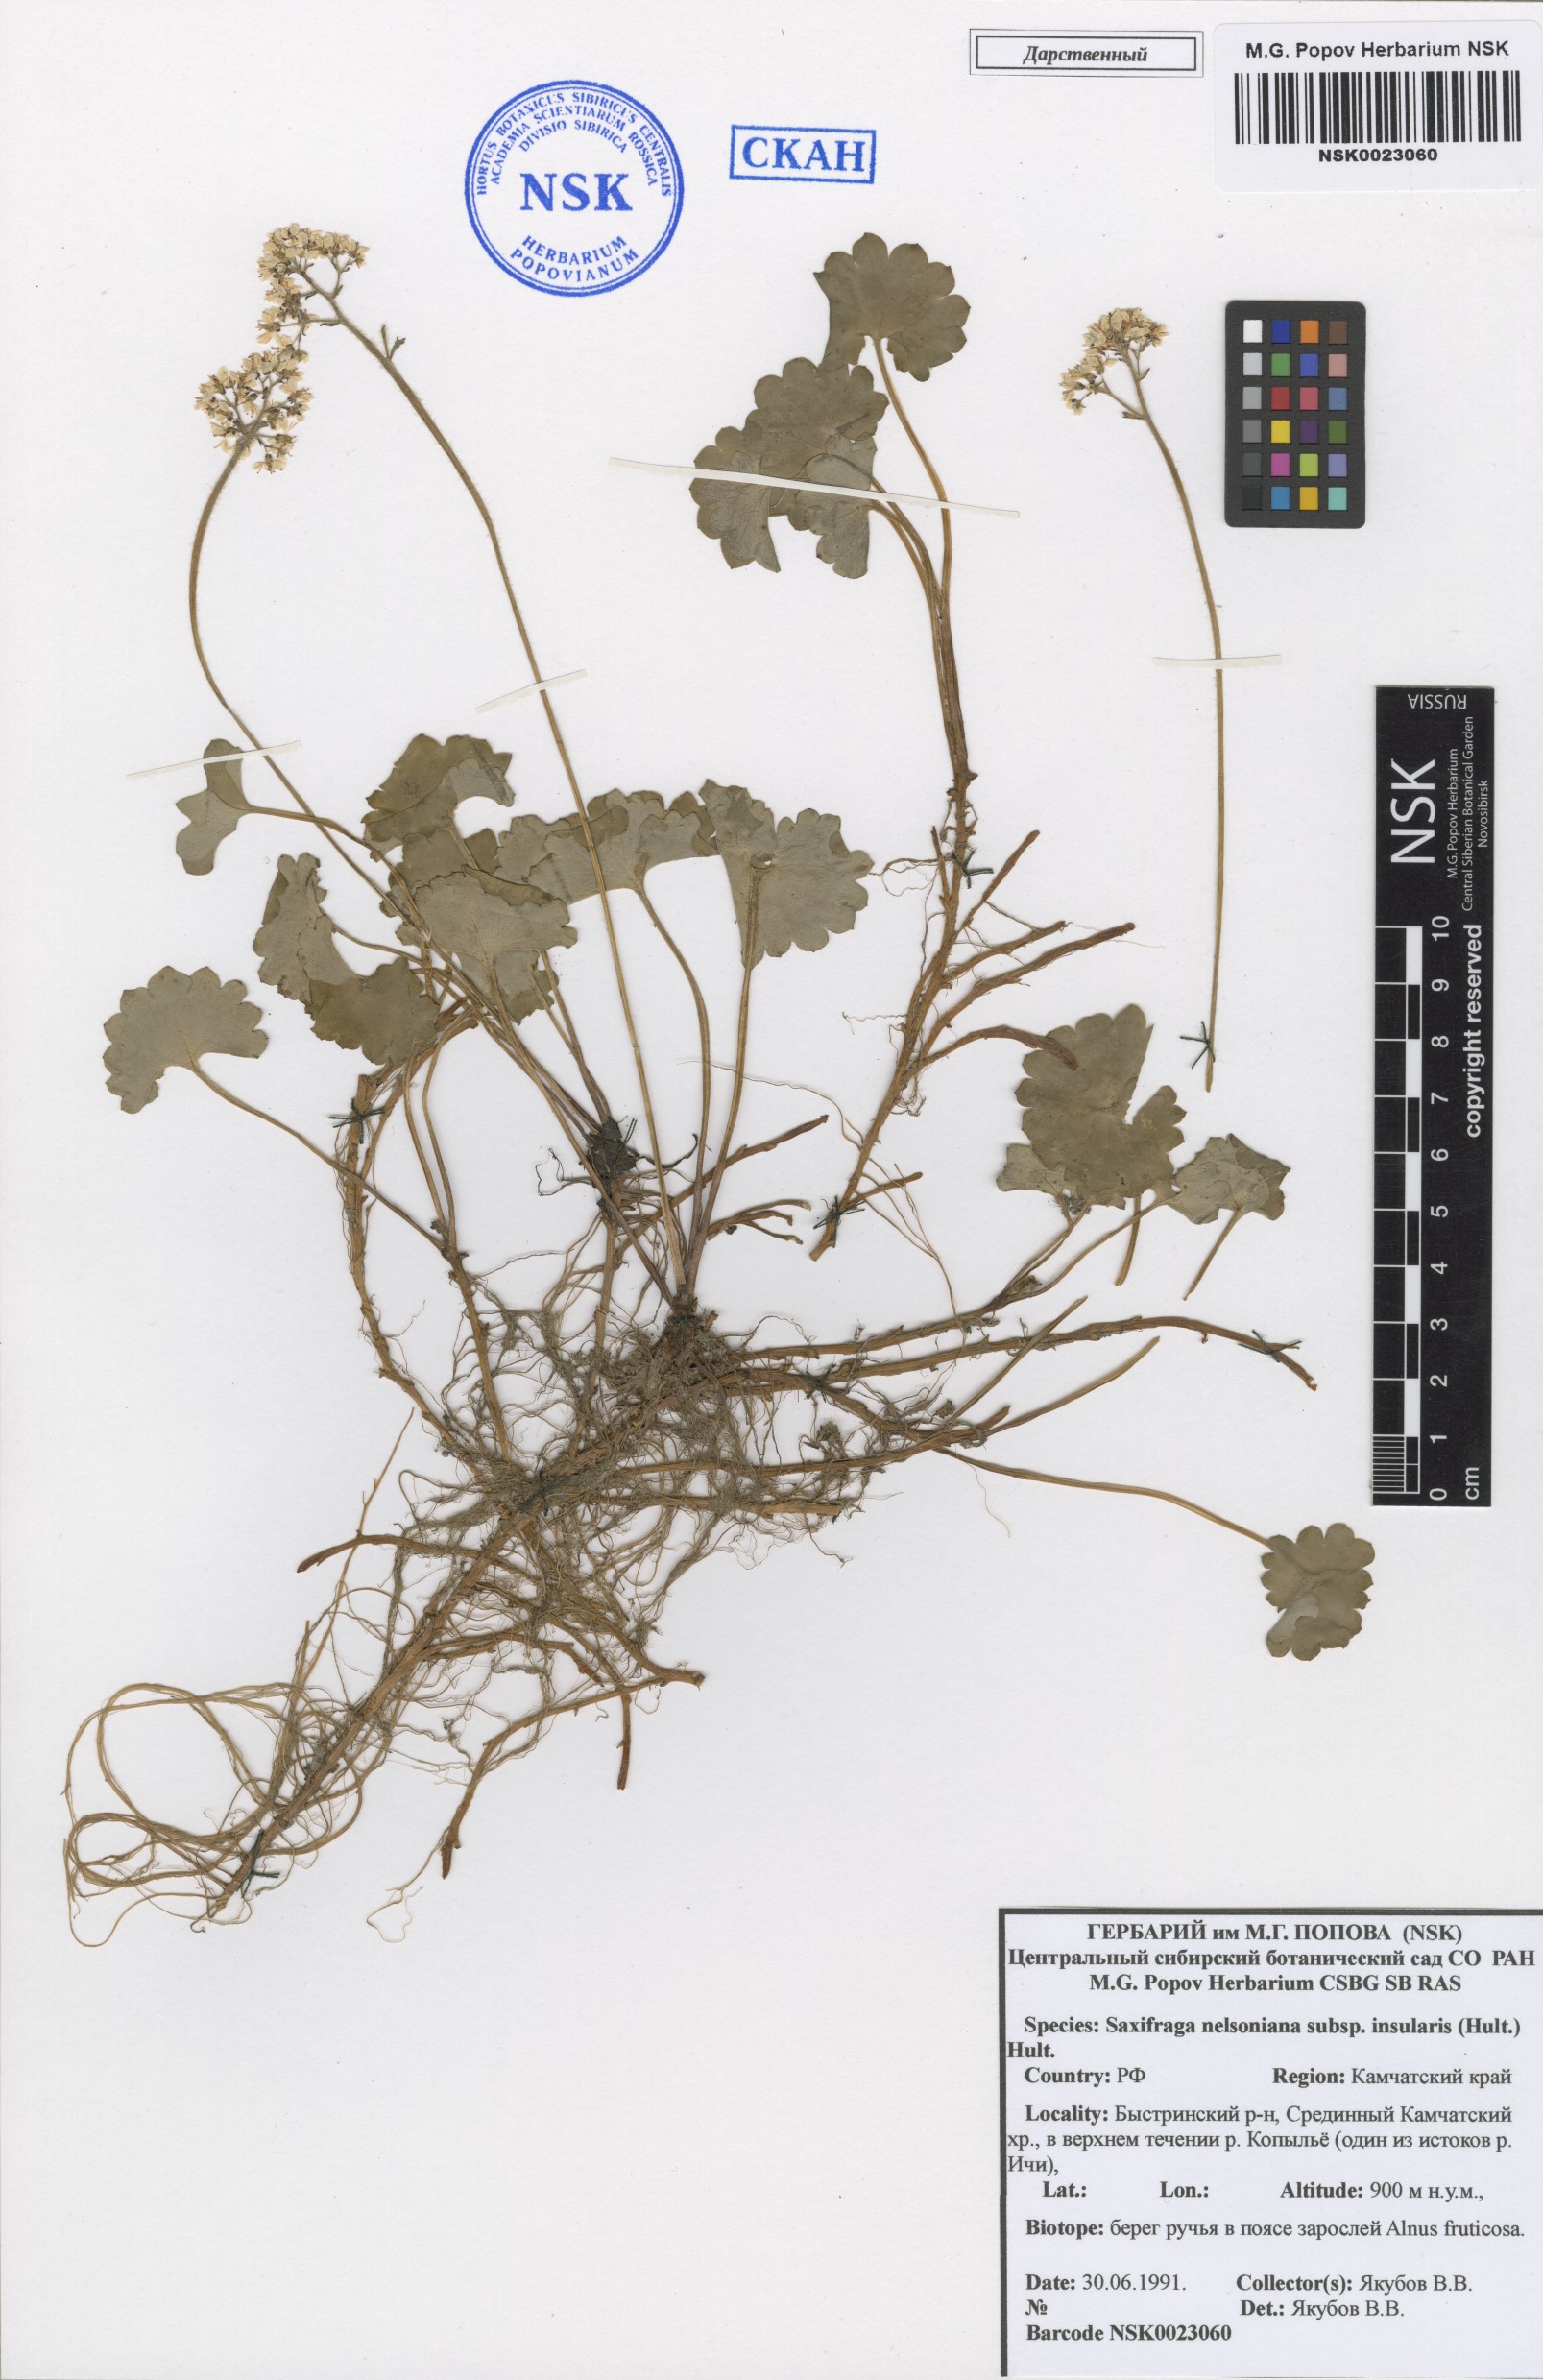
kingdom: Plantae
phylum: Tracheophyta
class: Magnoliopsida
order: Saxifragales
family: Saxifragaceae
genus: Micranthes
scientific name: Micranthes nelsoniana
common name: Nelson's saxifrage
